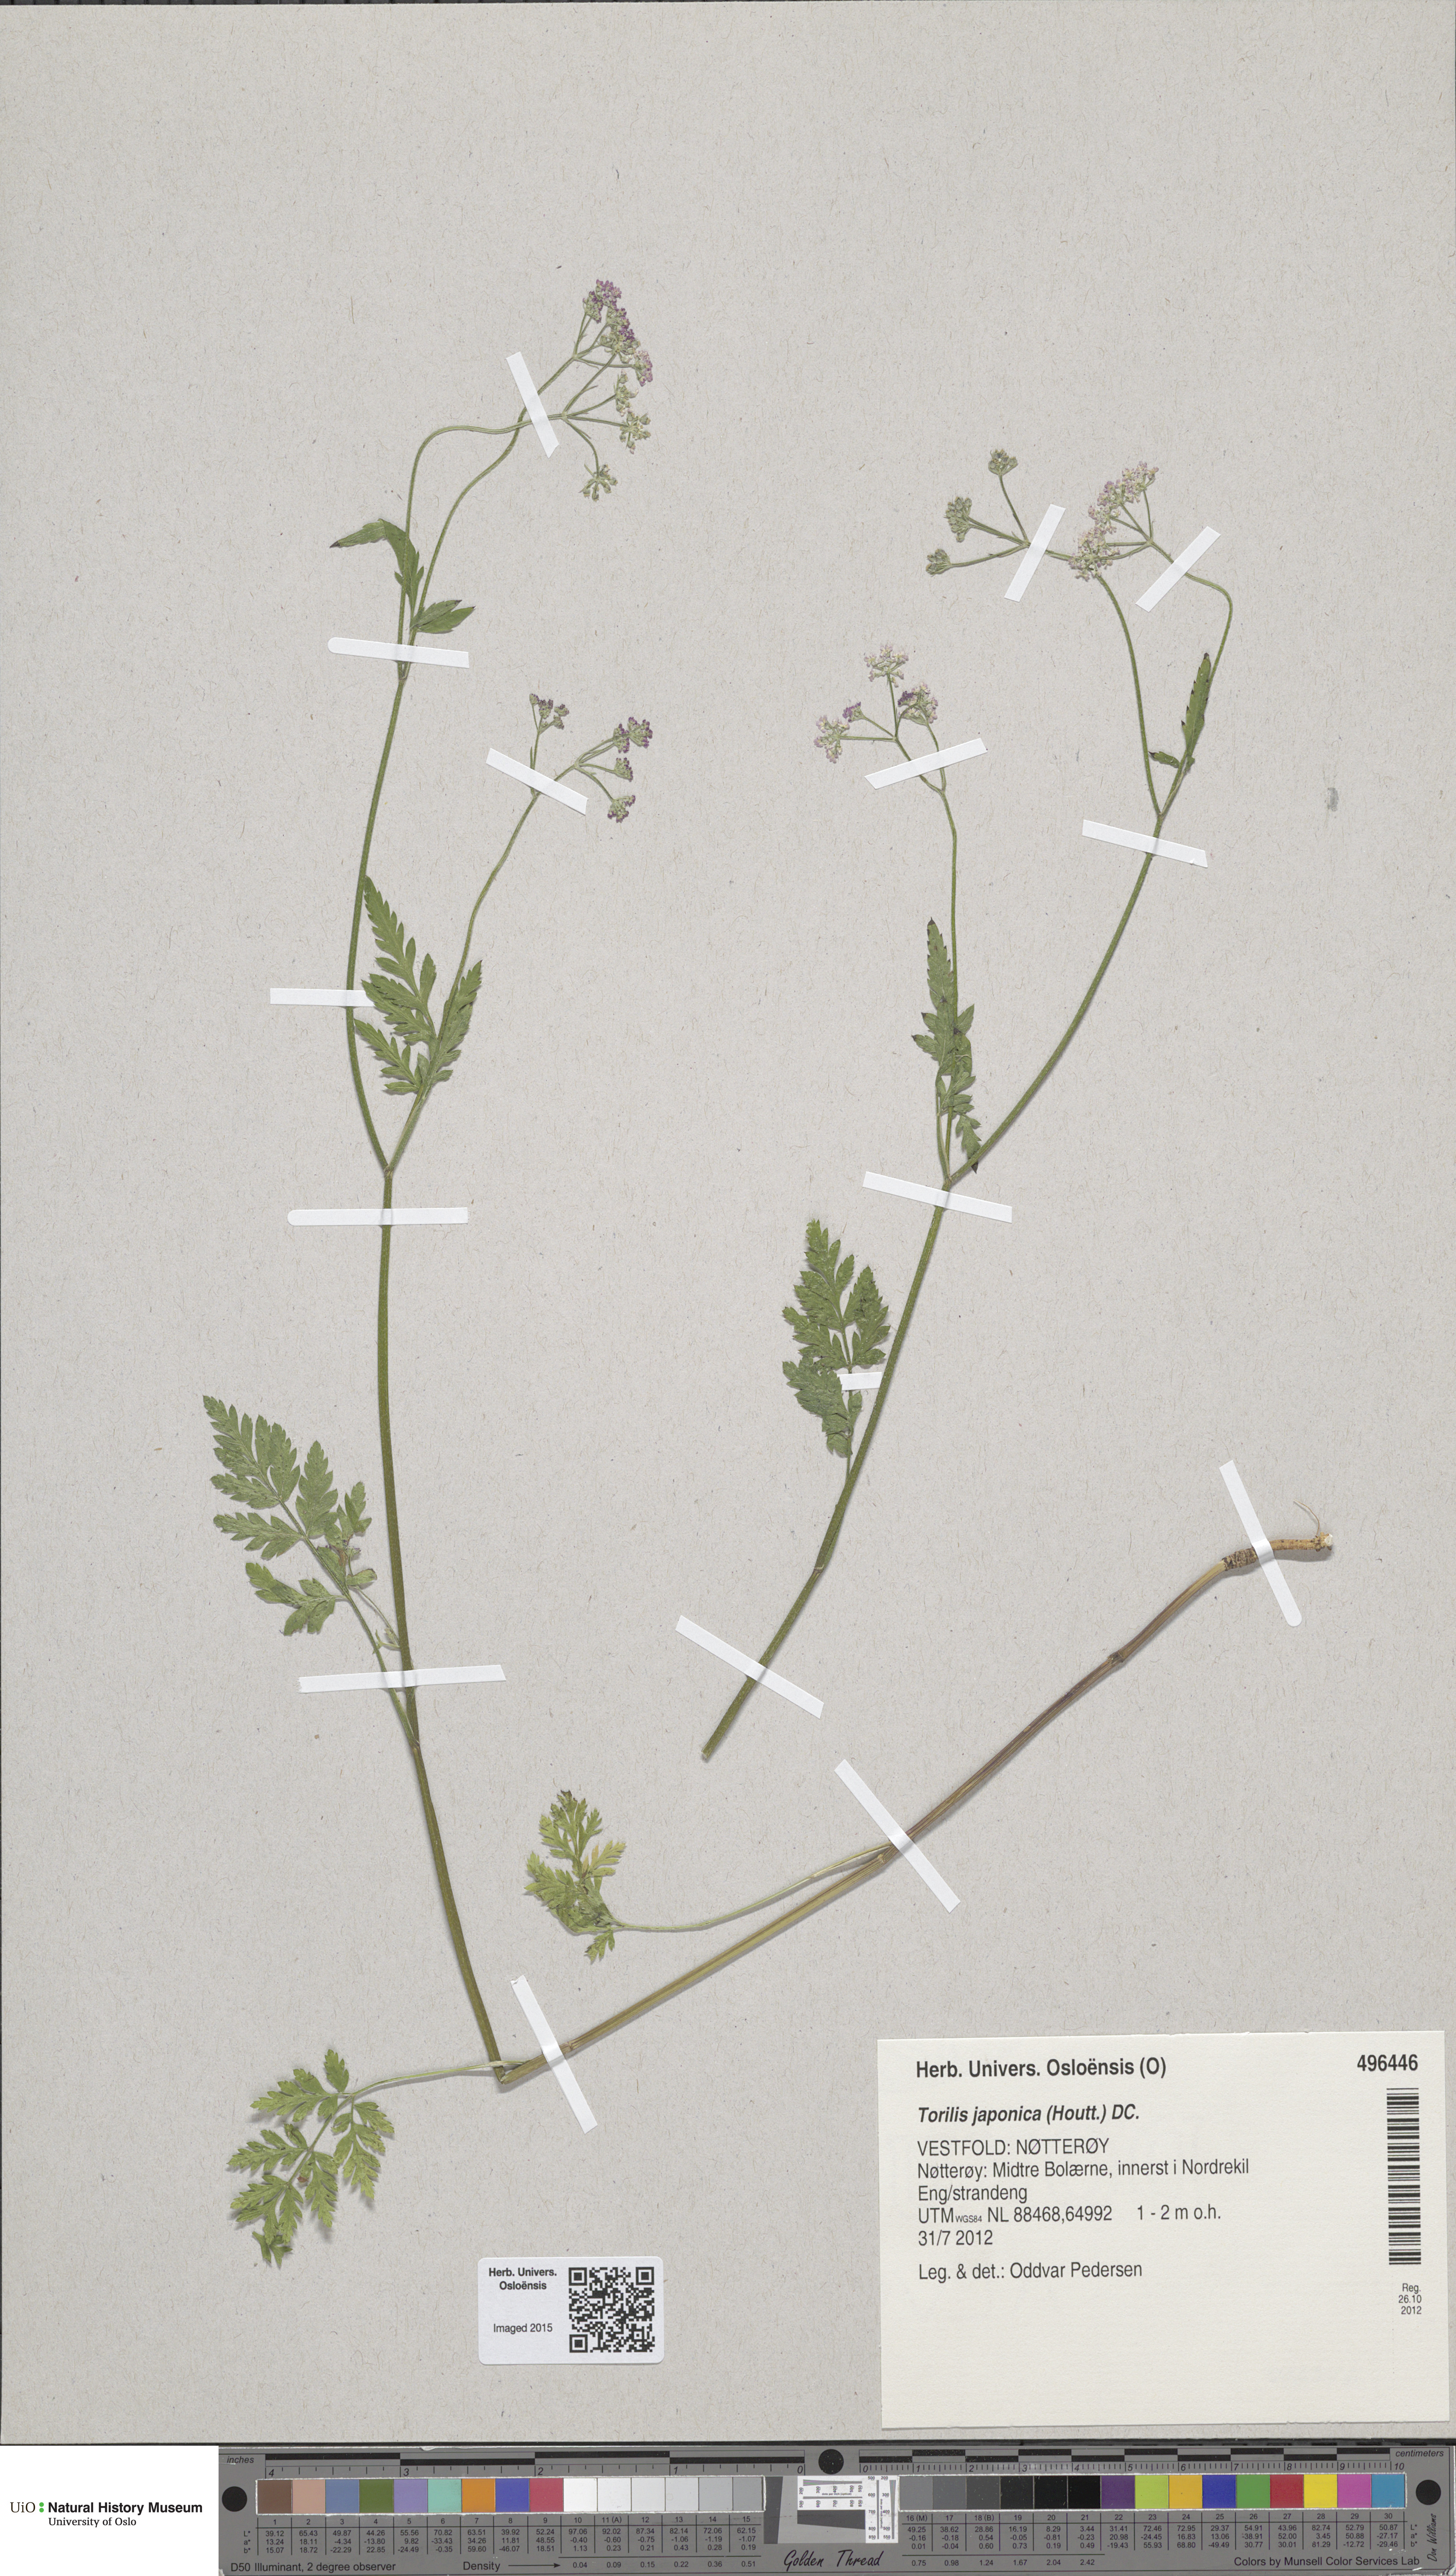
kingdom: Plantae
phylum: Tracheophyta
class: Magnoliopsida
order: Apiales
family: Apiaceae
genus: Torilis
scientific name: Torilis japonica
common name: Upright hedge-parsley
